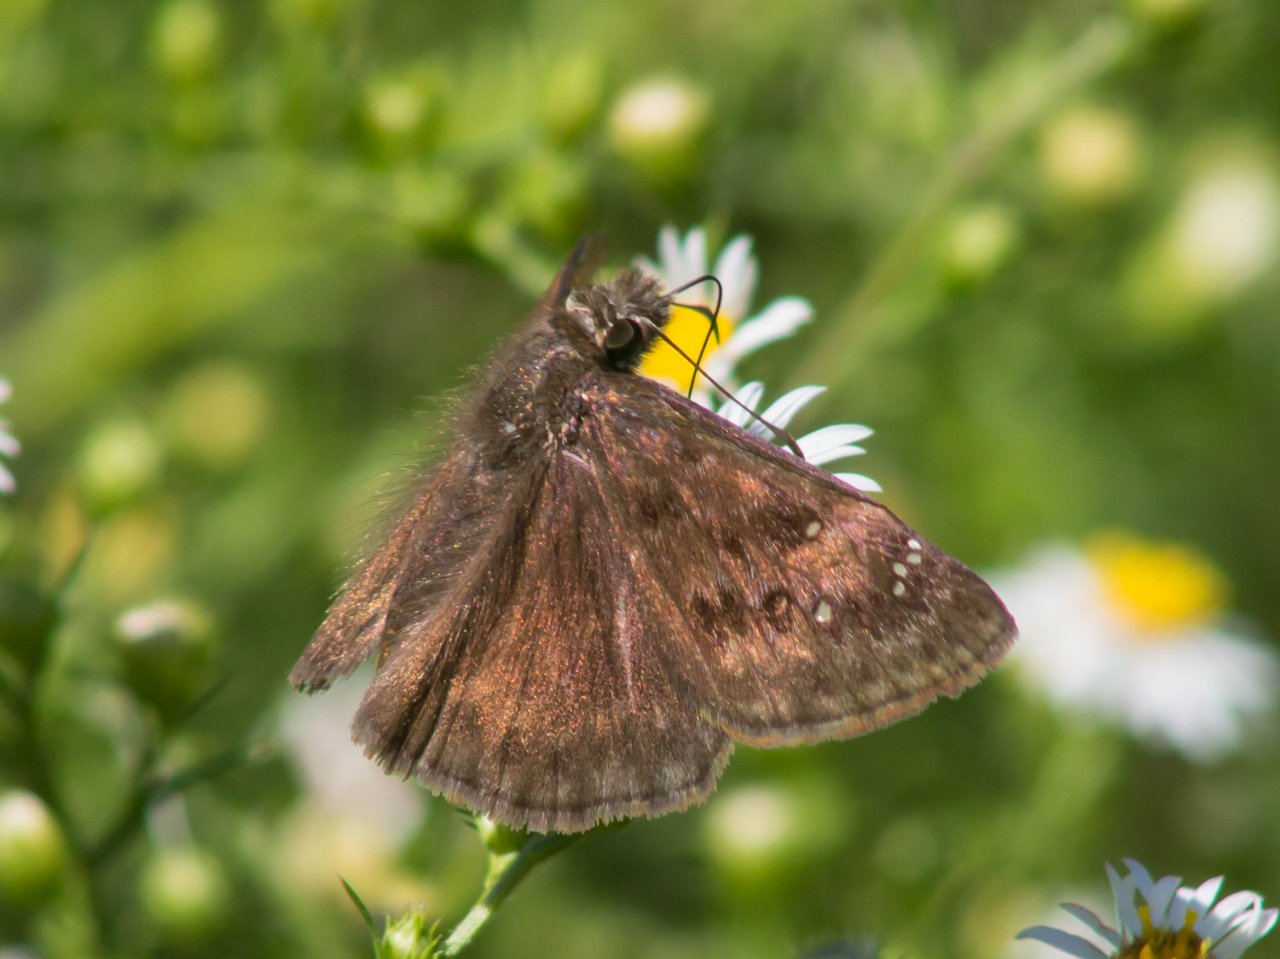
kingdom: Animalia
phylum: Arthropoda
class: Insecta
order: Lepidoptera
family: Hesperiidae
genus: Gesta
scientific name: Gesta
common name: Horace's Duskywing
